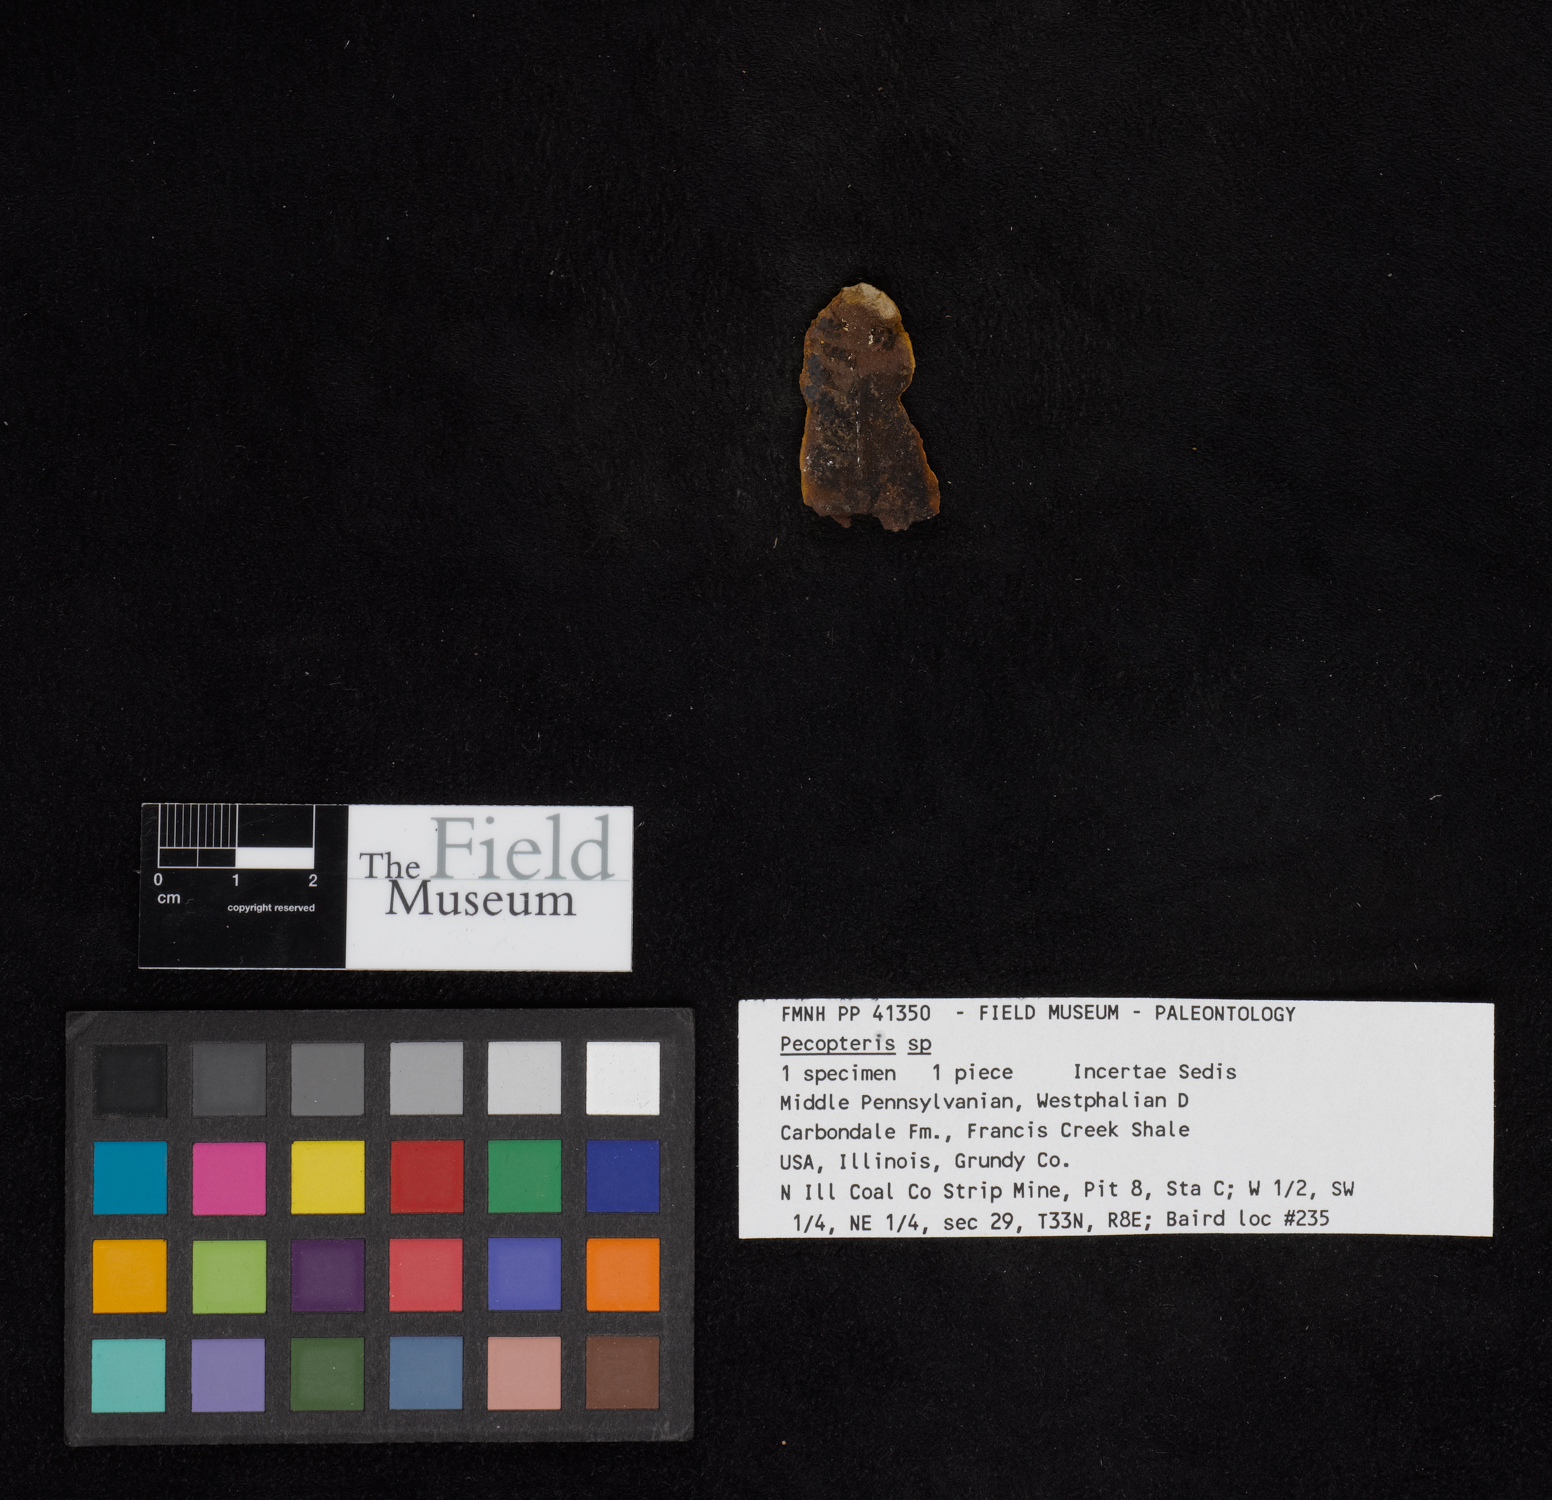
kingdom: Plantae
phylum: Tracheophyta
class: Polypodiopsida
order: Marattiales
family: Asterothecaceae
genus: Pecopteris
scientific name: Pecopteris
